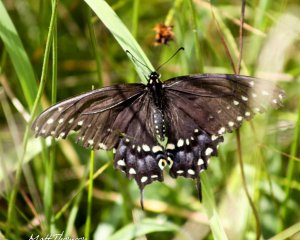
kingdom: Animalia
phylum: Arthropoda
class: Insecta
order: Lepidoptera
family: Papilionidae
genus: Papilio
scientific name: Papilio polyxenes
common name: Black Swallowtail
